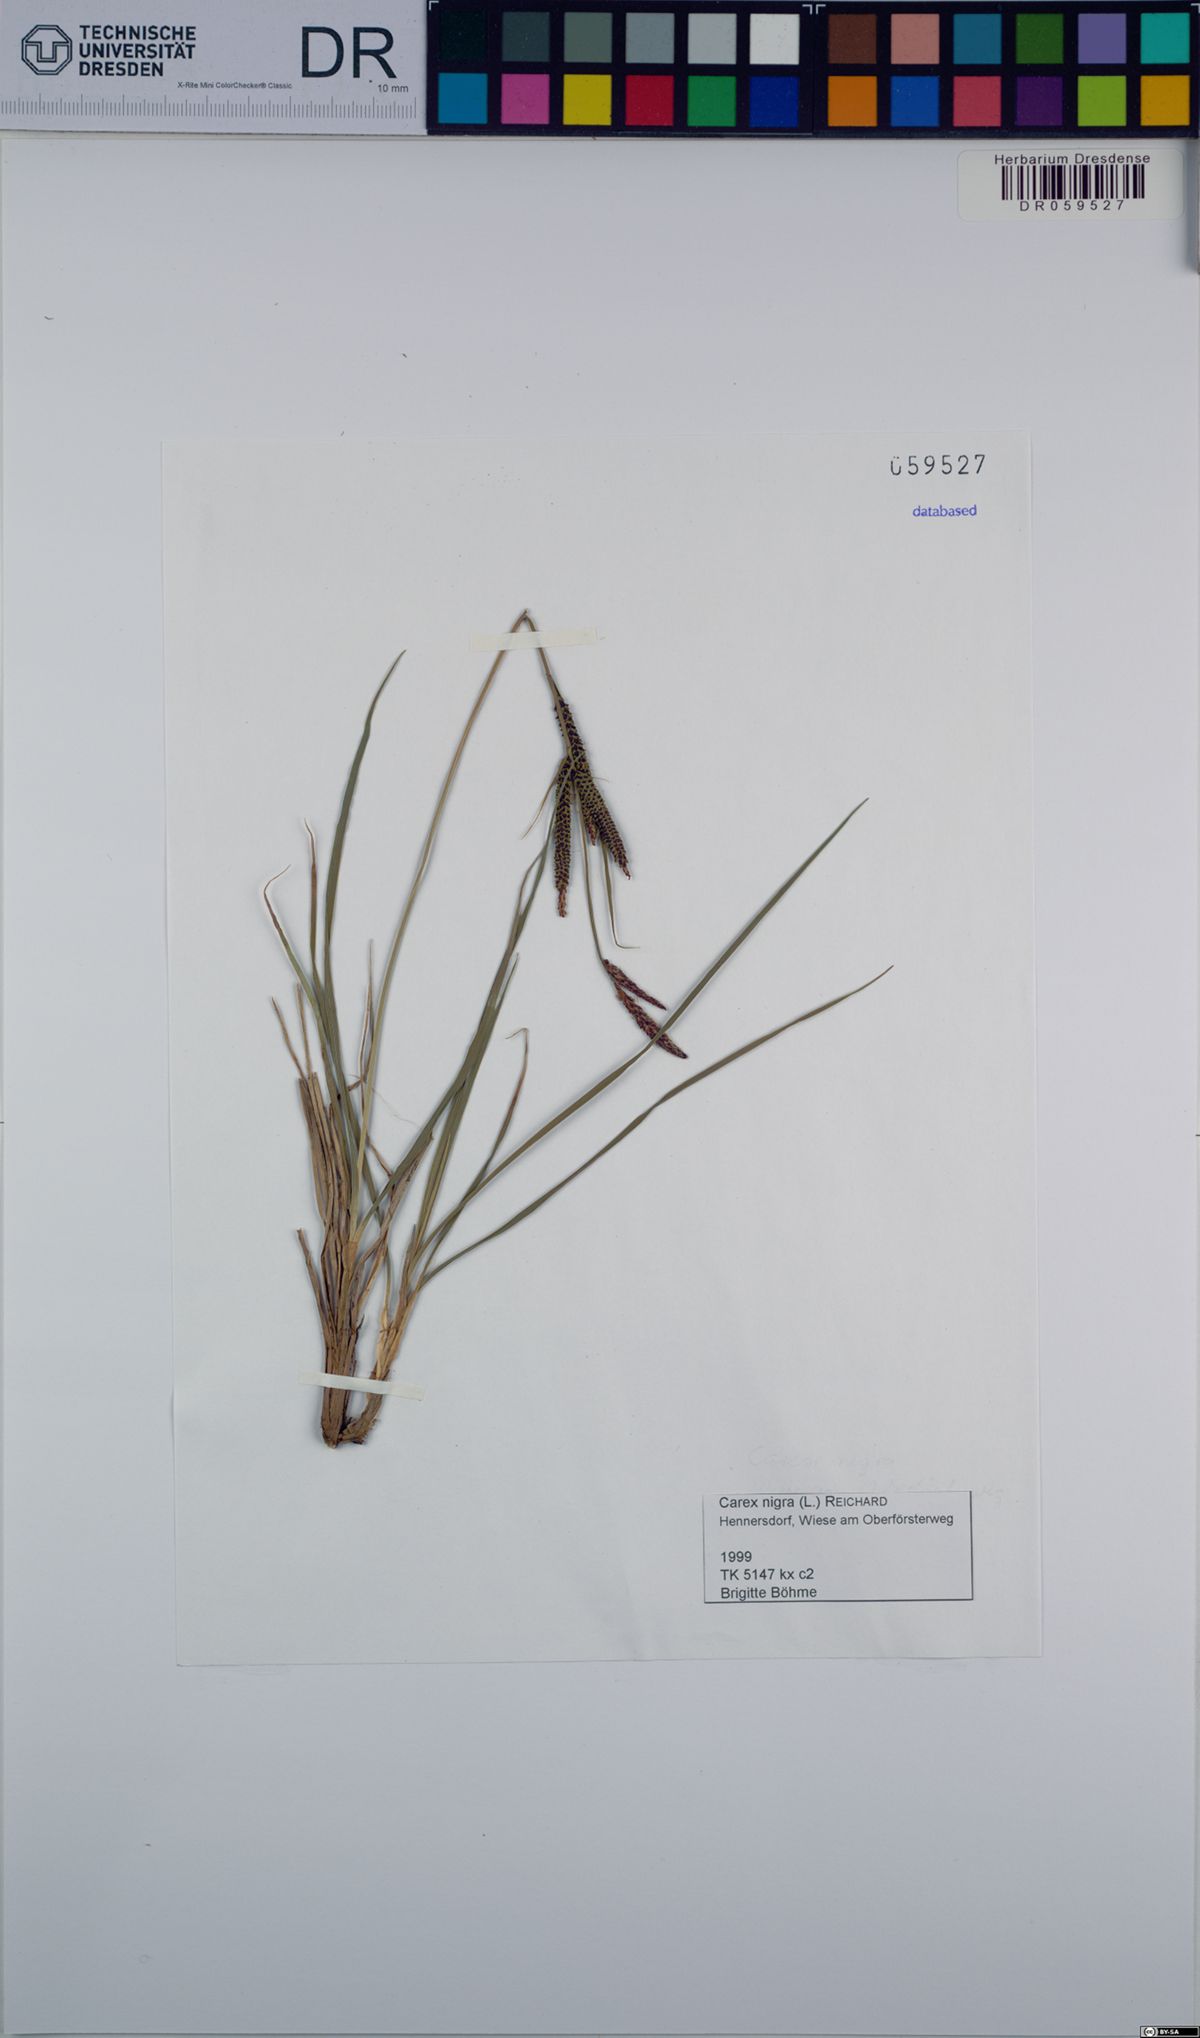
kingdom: Plantae
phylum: Tracheophyta
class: Liliopsida
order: Poales
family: Cyperaceae
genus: Carex
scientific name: Carex nigra
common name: Common sedge
